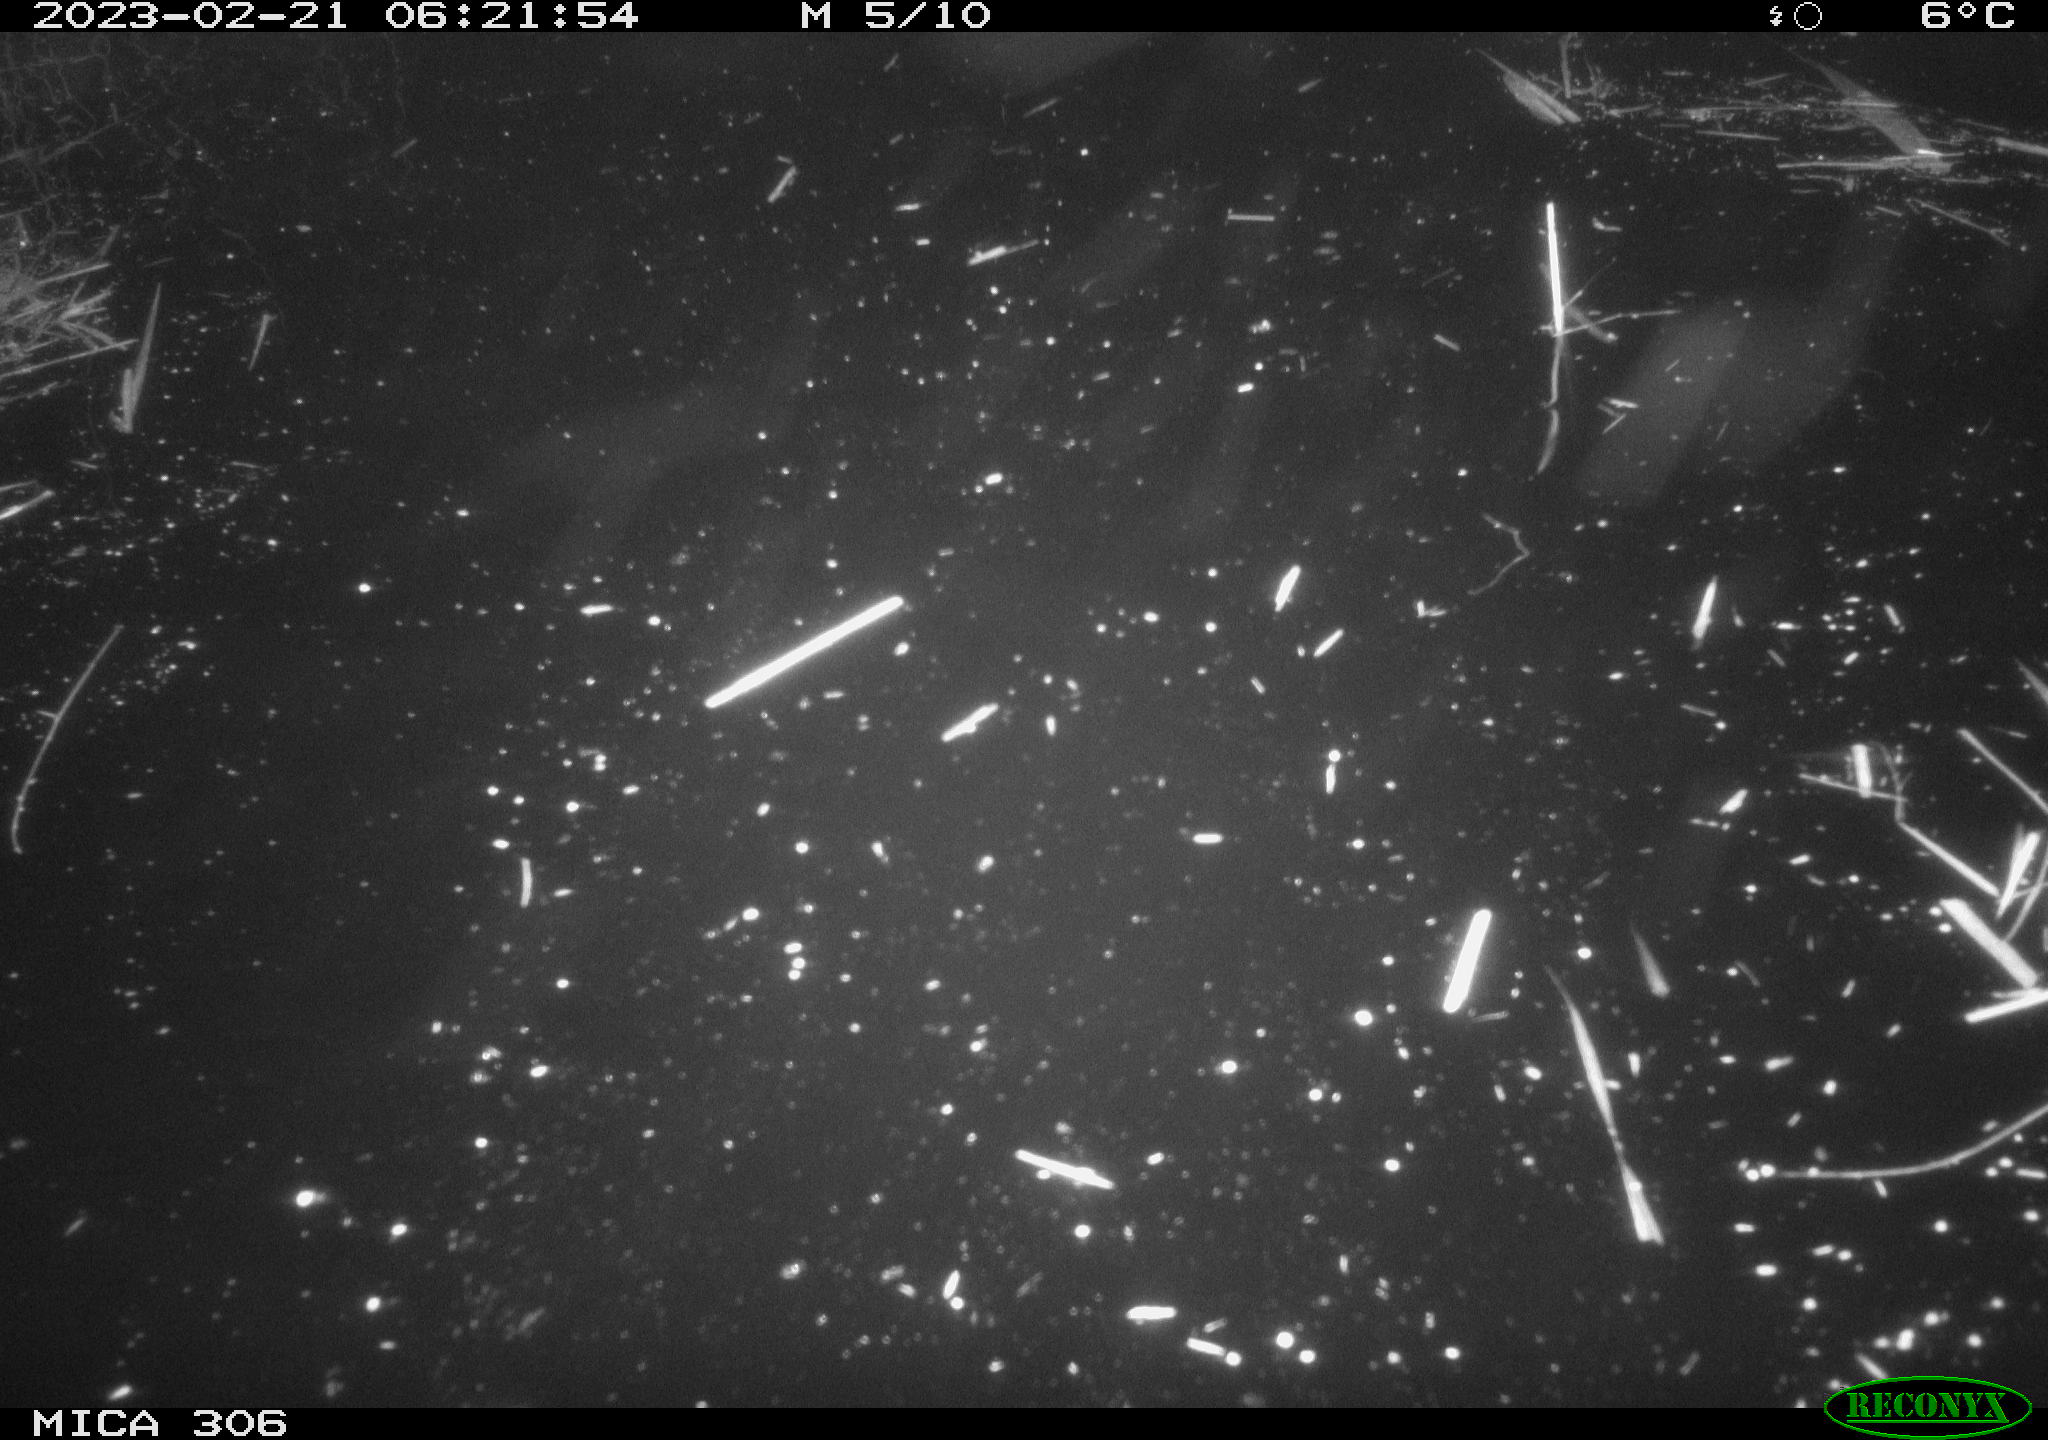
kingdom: Animalia
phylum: Chordata
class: Mammalia
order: Rodentia
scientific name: Rodentia
